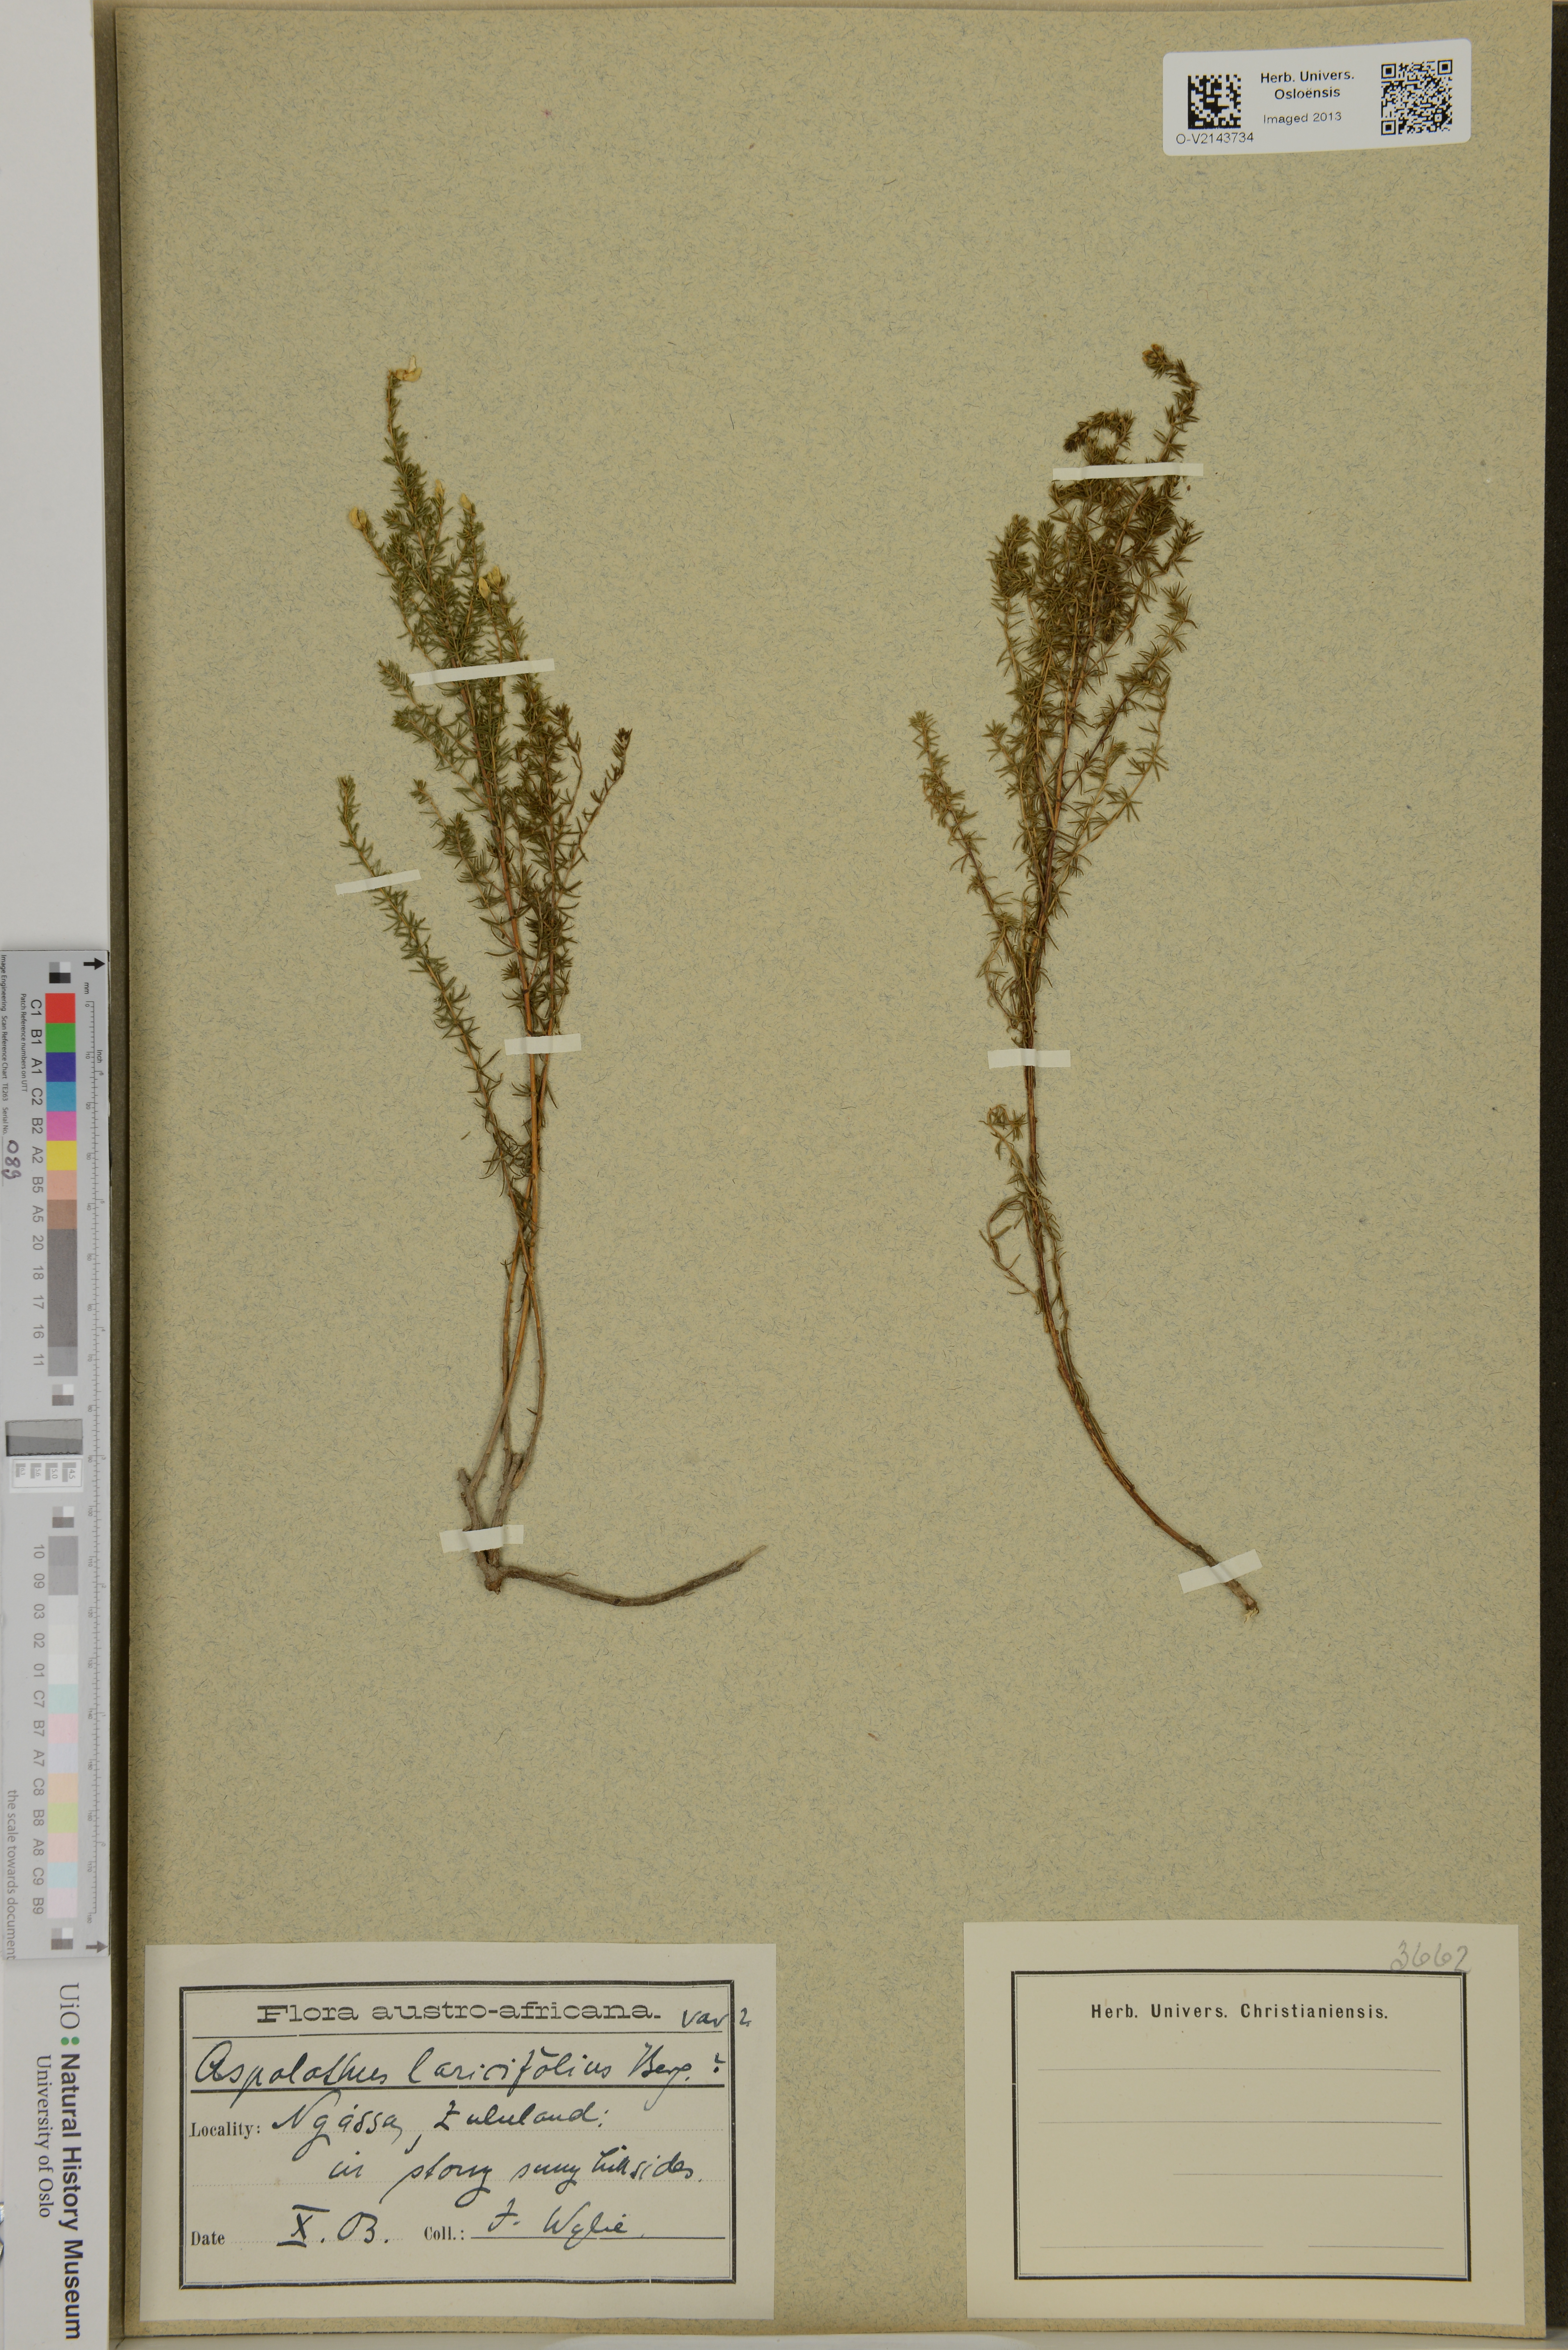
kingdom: Plantae
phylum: Tracheophyta
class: Magnoliopsida
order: Fabales
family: Fabaceae
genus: Aspalathus
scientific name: Aspalathus laricifolia
